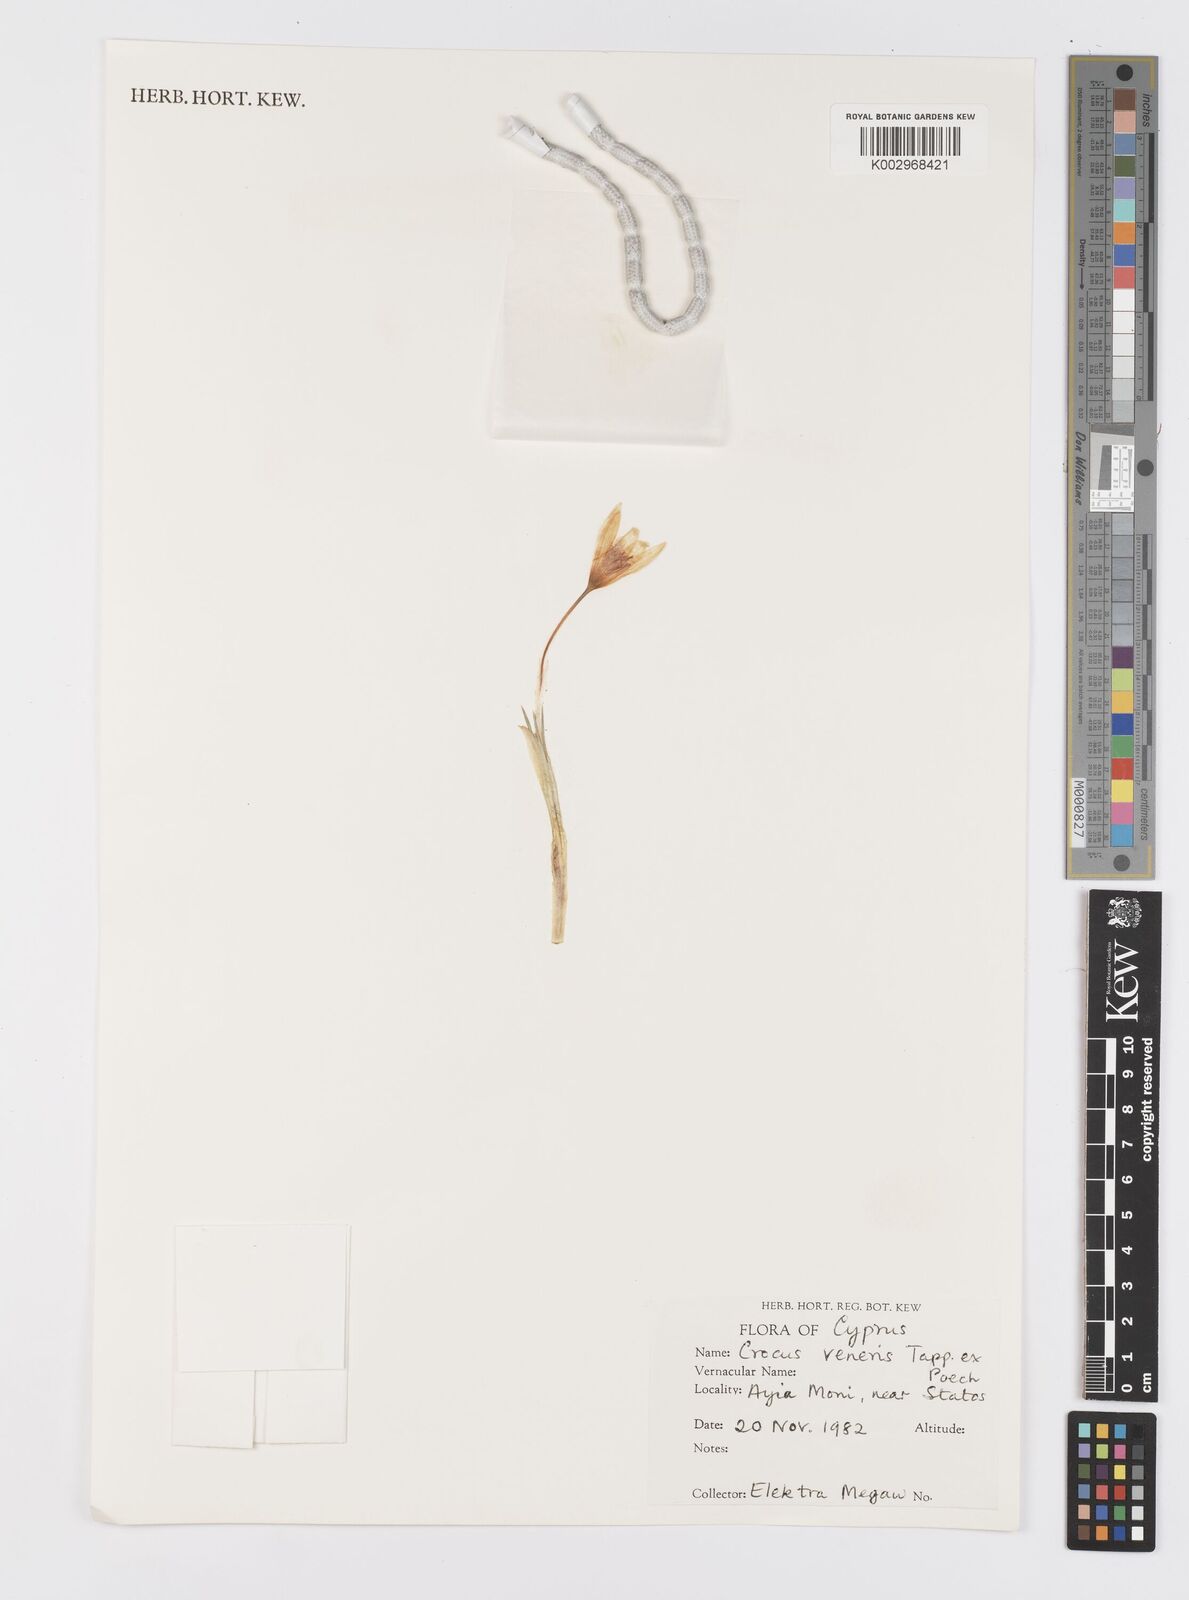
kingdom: Plantae
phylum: Tracheophyta
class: Liliopsida
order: Asparagales
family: Iridaceae
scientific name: Iridaceae
